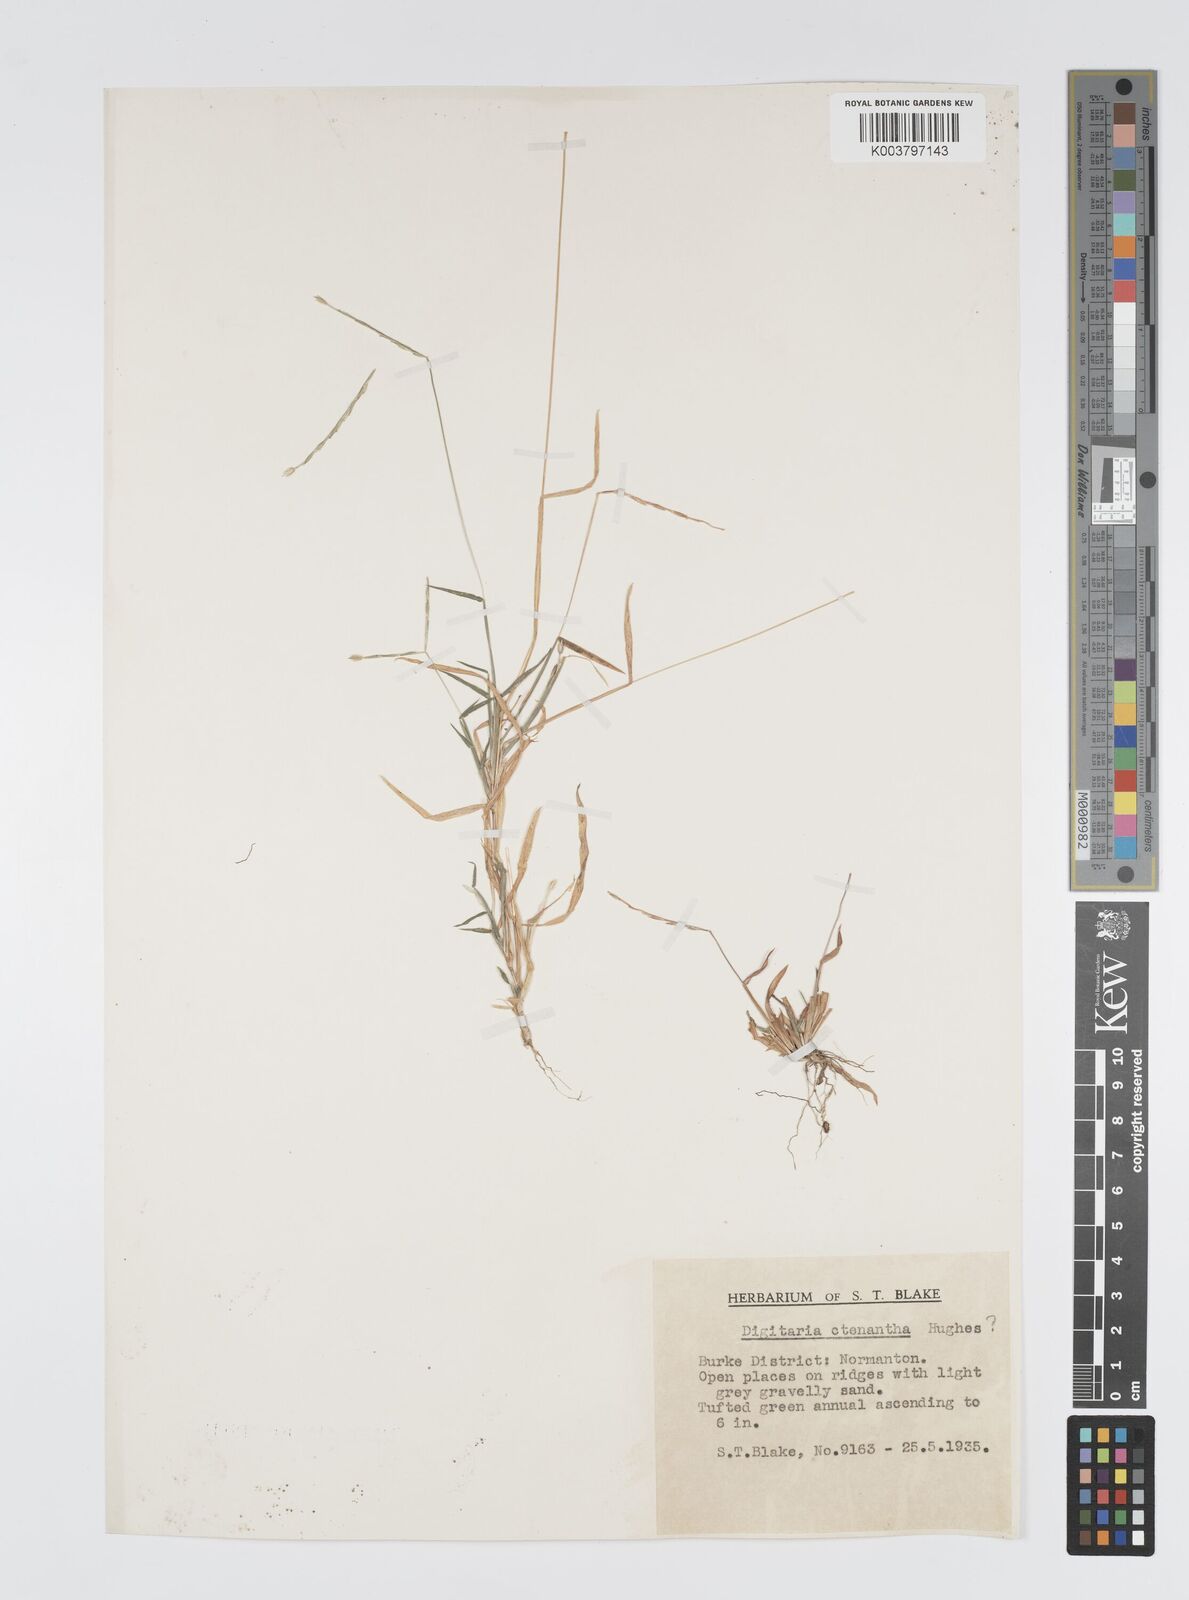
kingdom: Plantae
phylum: Tracheophyta
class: Liliopsida
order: Poales
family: Poaceae
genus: Digitaria
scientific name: Digitaria spec
